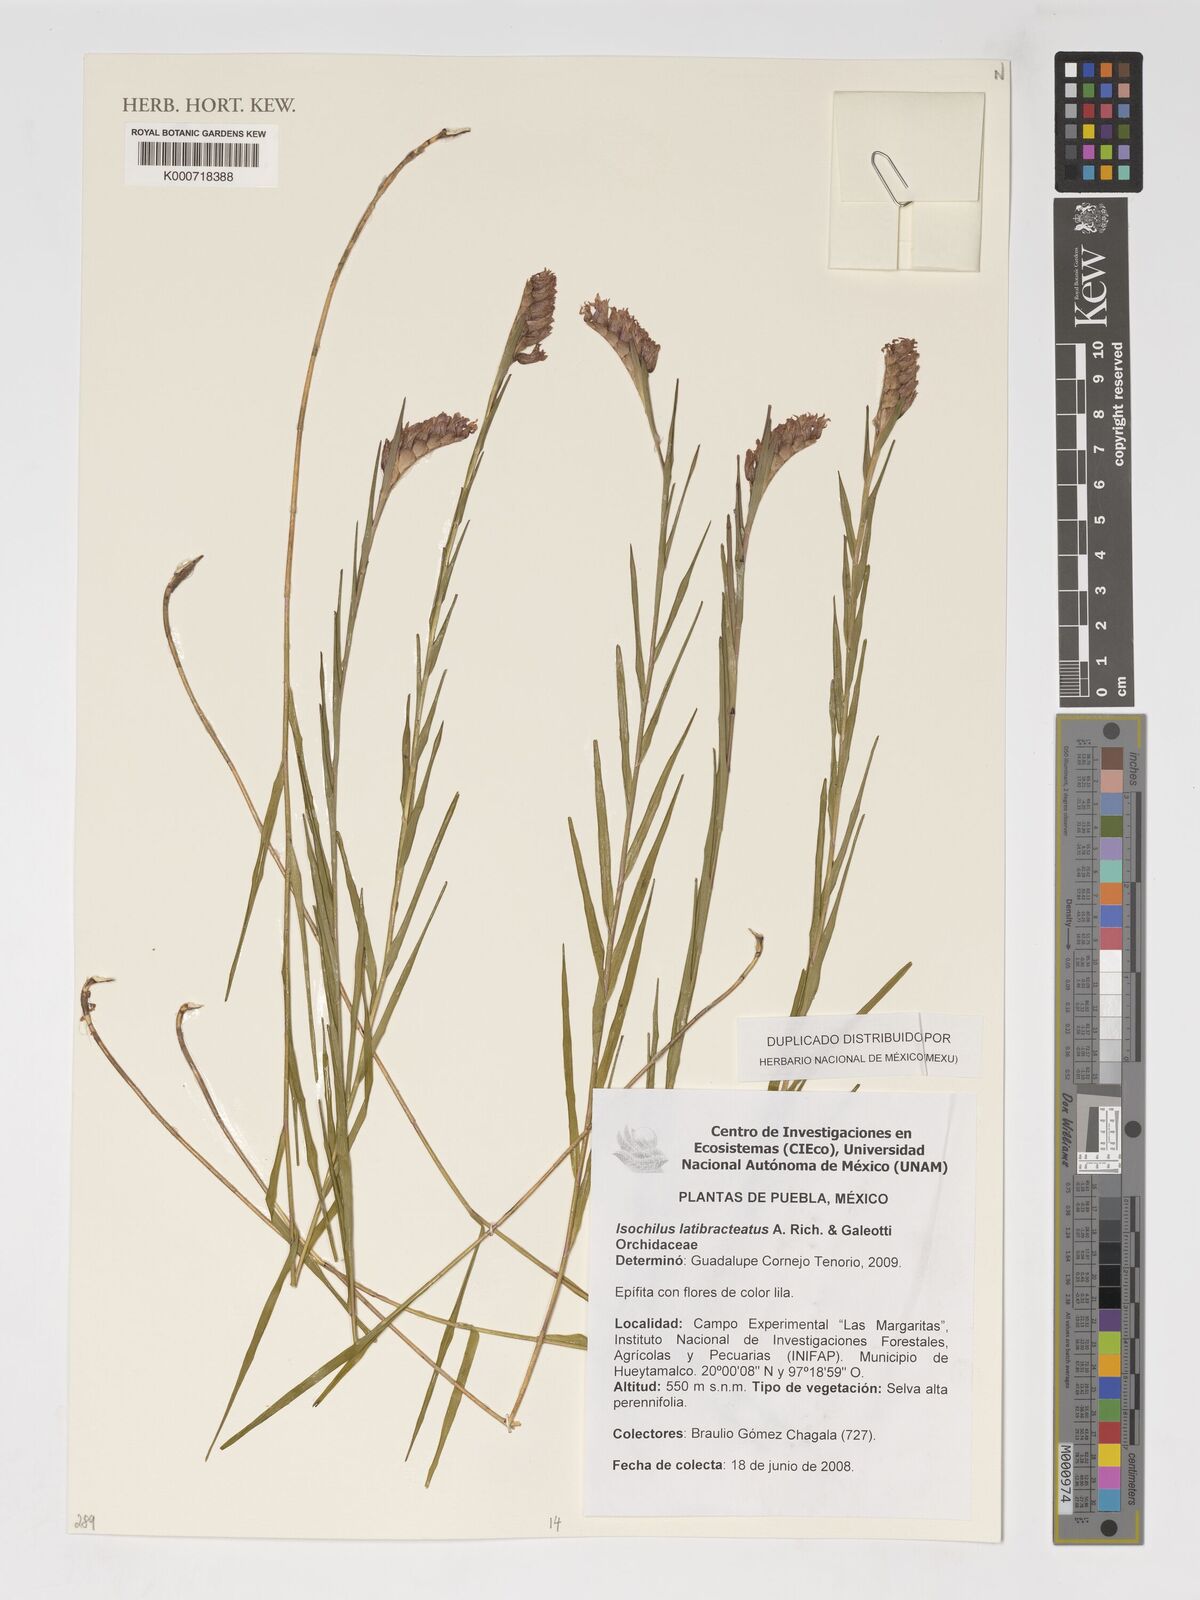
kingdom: Plantae
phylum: Tracheophyta
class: Liliopsida
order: Asparagales
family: Orchidaceae
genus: Isochilus
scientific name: Isochilus latibracteatus
